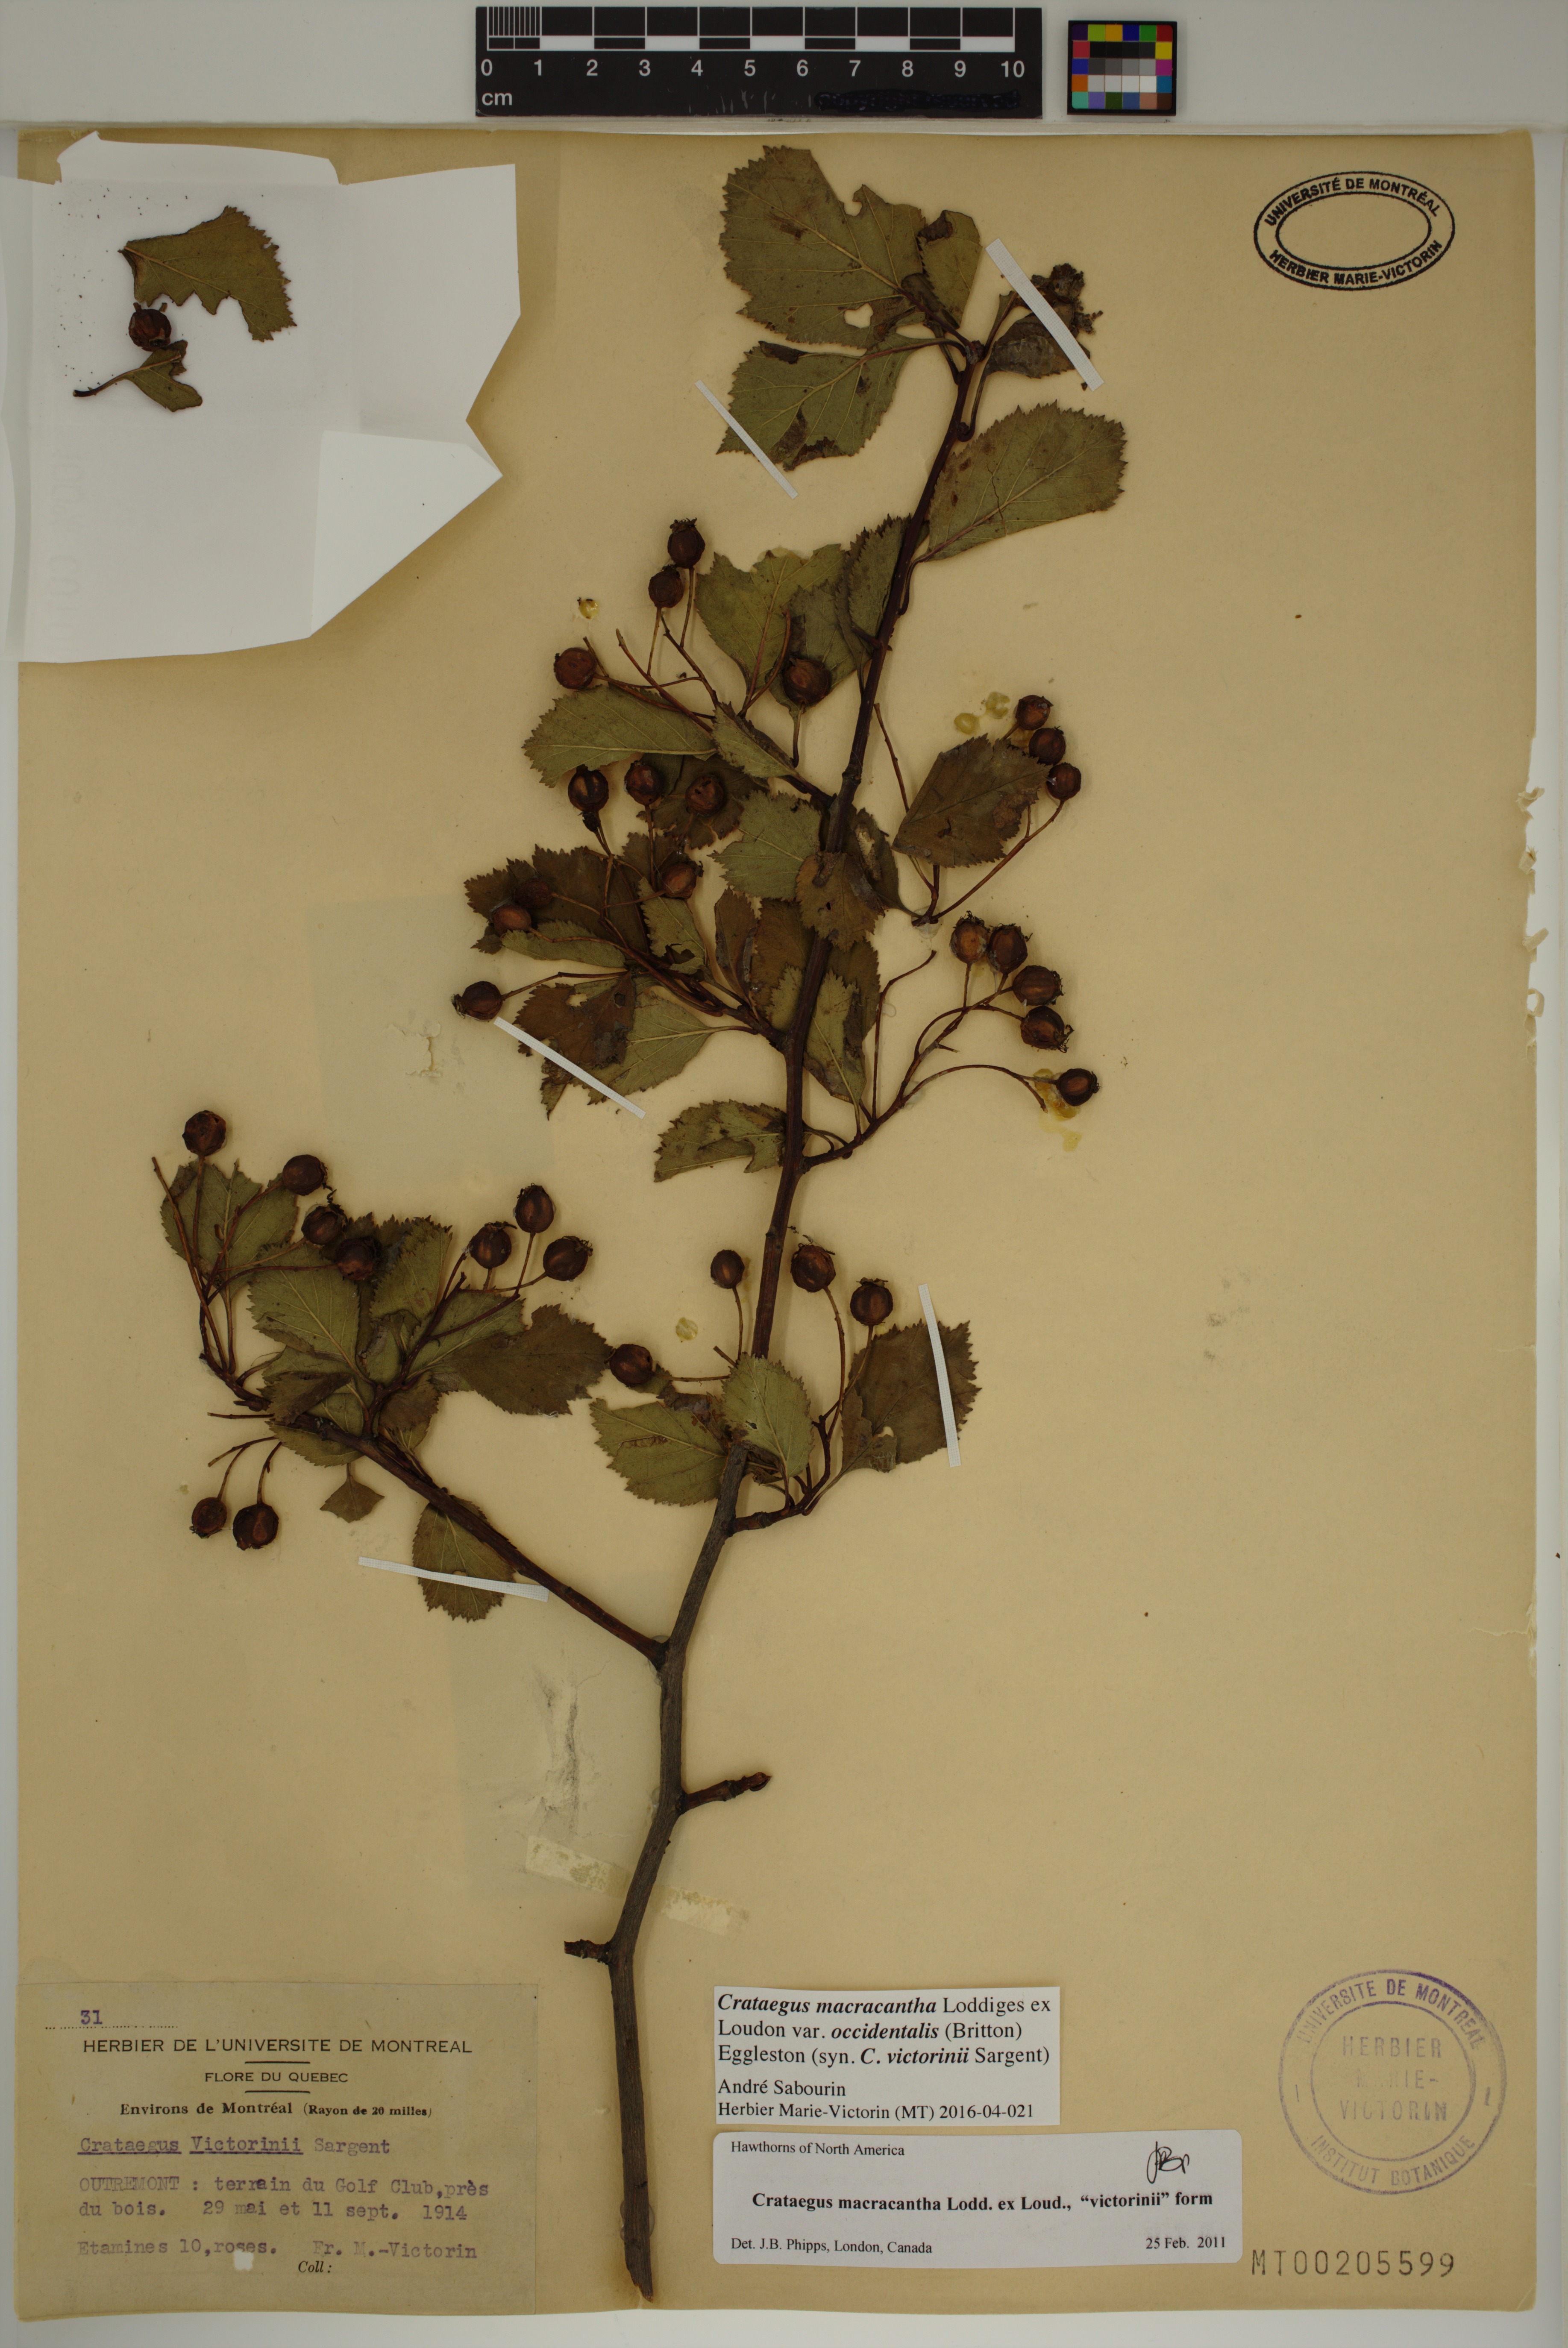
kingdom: Plantae
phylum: Tracheophyta
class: Magnoliopsida
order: Rosales
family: Rosaceae
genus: Crataegus
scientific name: Crataegus macracantha
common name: Large-thorn hawthorn
